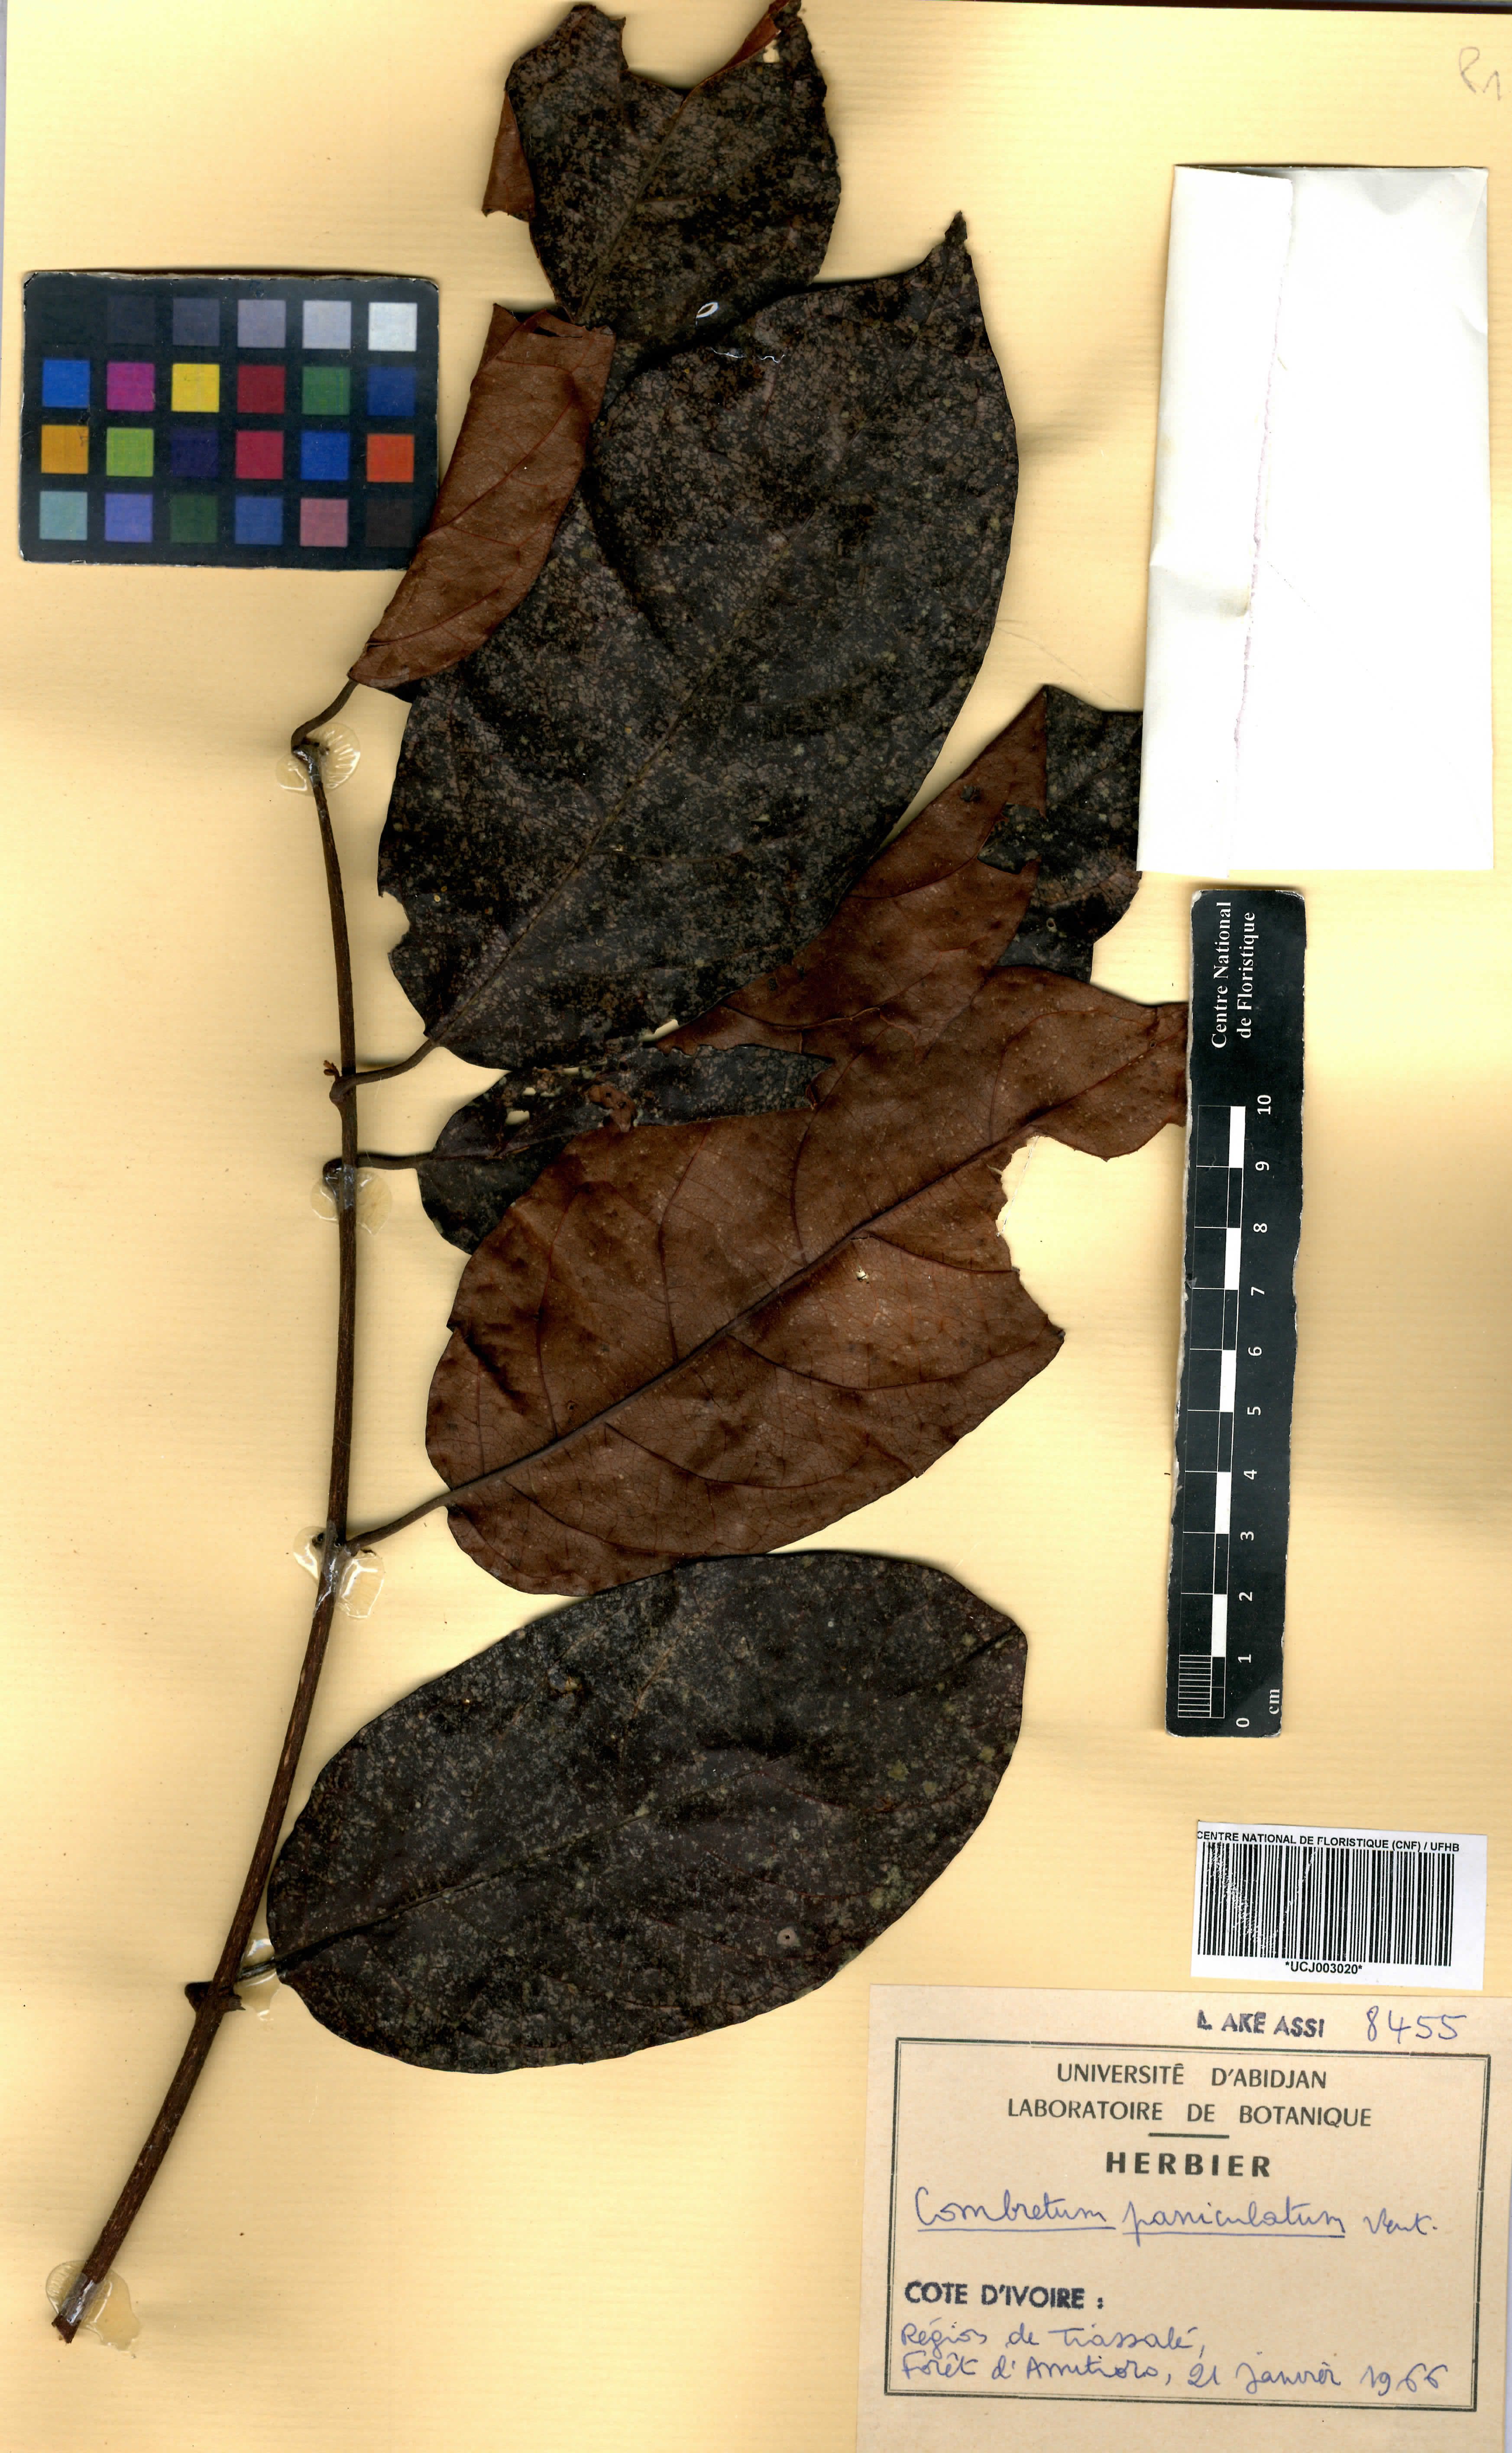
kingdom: Plantae
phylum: Tracheophyta
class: Magnoliopsida
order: Myrtales
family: Combretaceae
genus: Combretum
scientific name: Combretum paniculatum
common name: Fire vine
